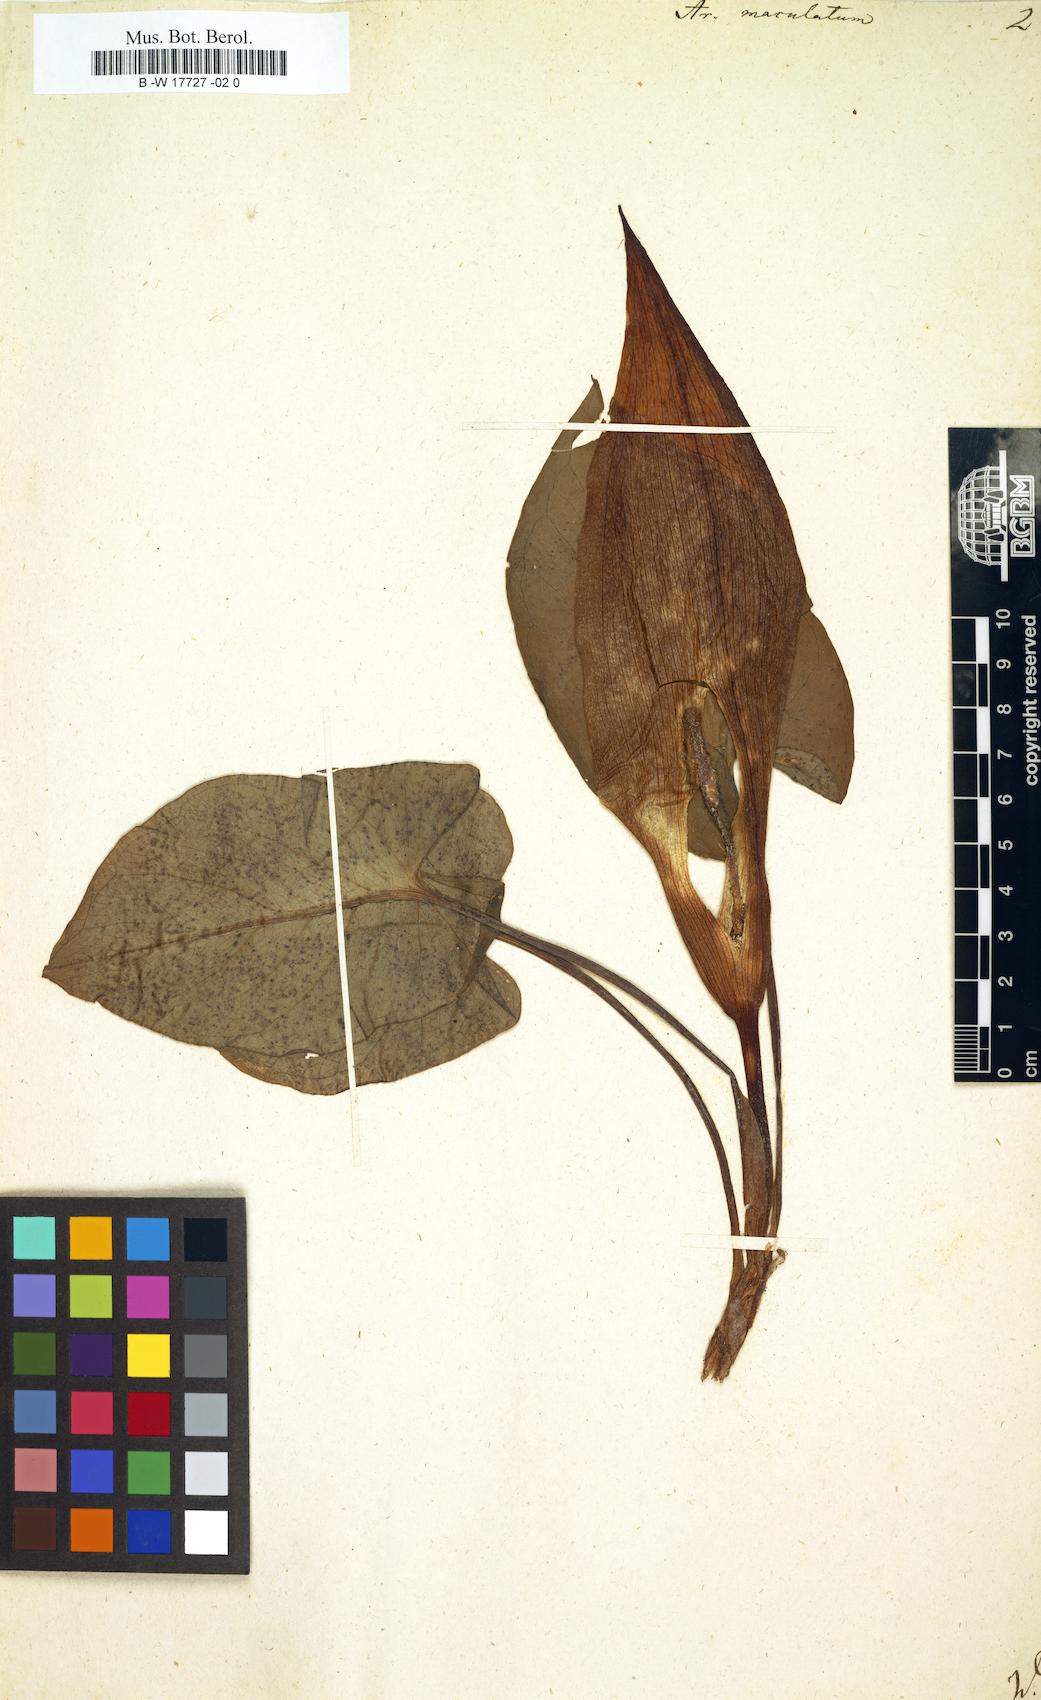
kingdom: Plantae
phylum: Tracheophyta
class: Liliopsida
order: Alismatales
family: Araceae
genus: Arum
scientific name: Arum maculatum
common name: Lords-and-ladies
